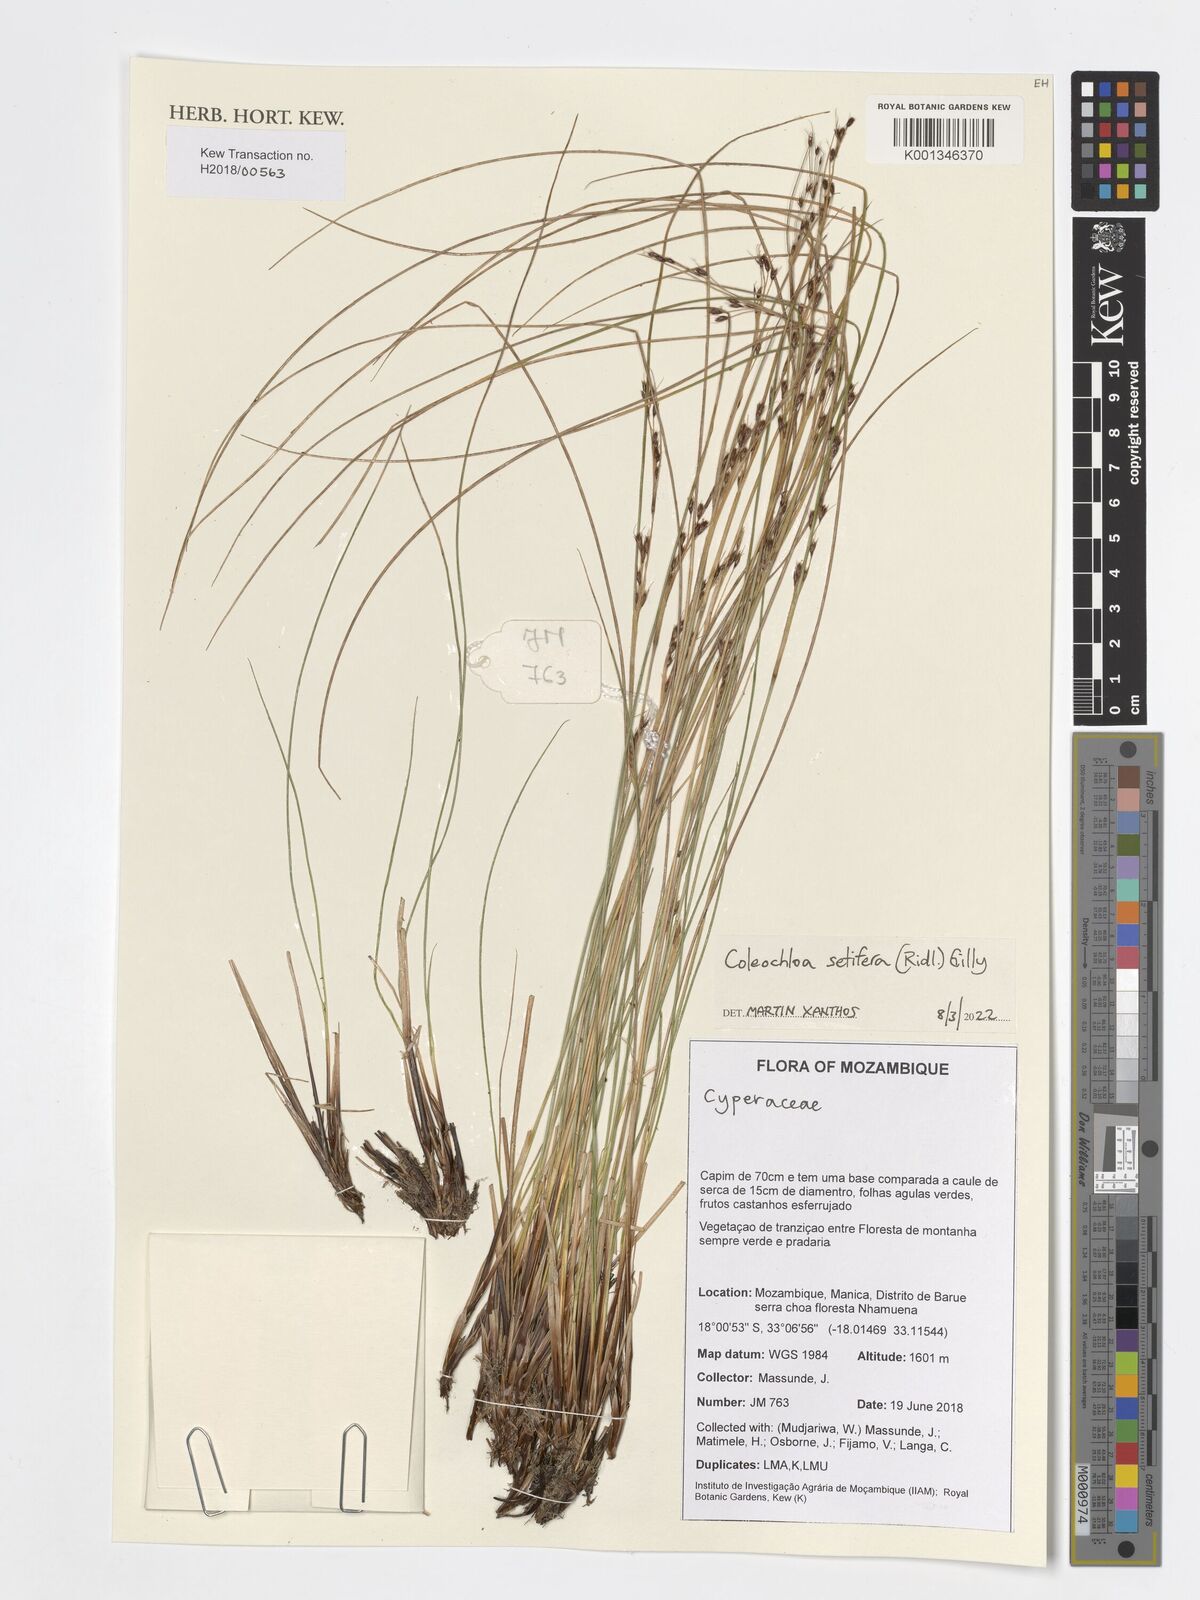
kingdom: Plantae
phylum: Tracheophyta
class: Liliopsida
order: Poales
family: Cyperaceae
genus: Coleochloa
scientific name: Coleochloa setifera
